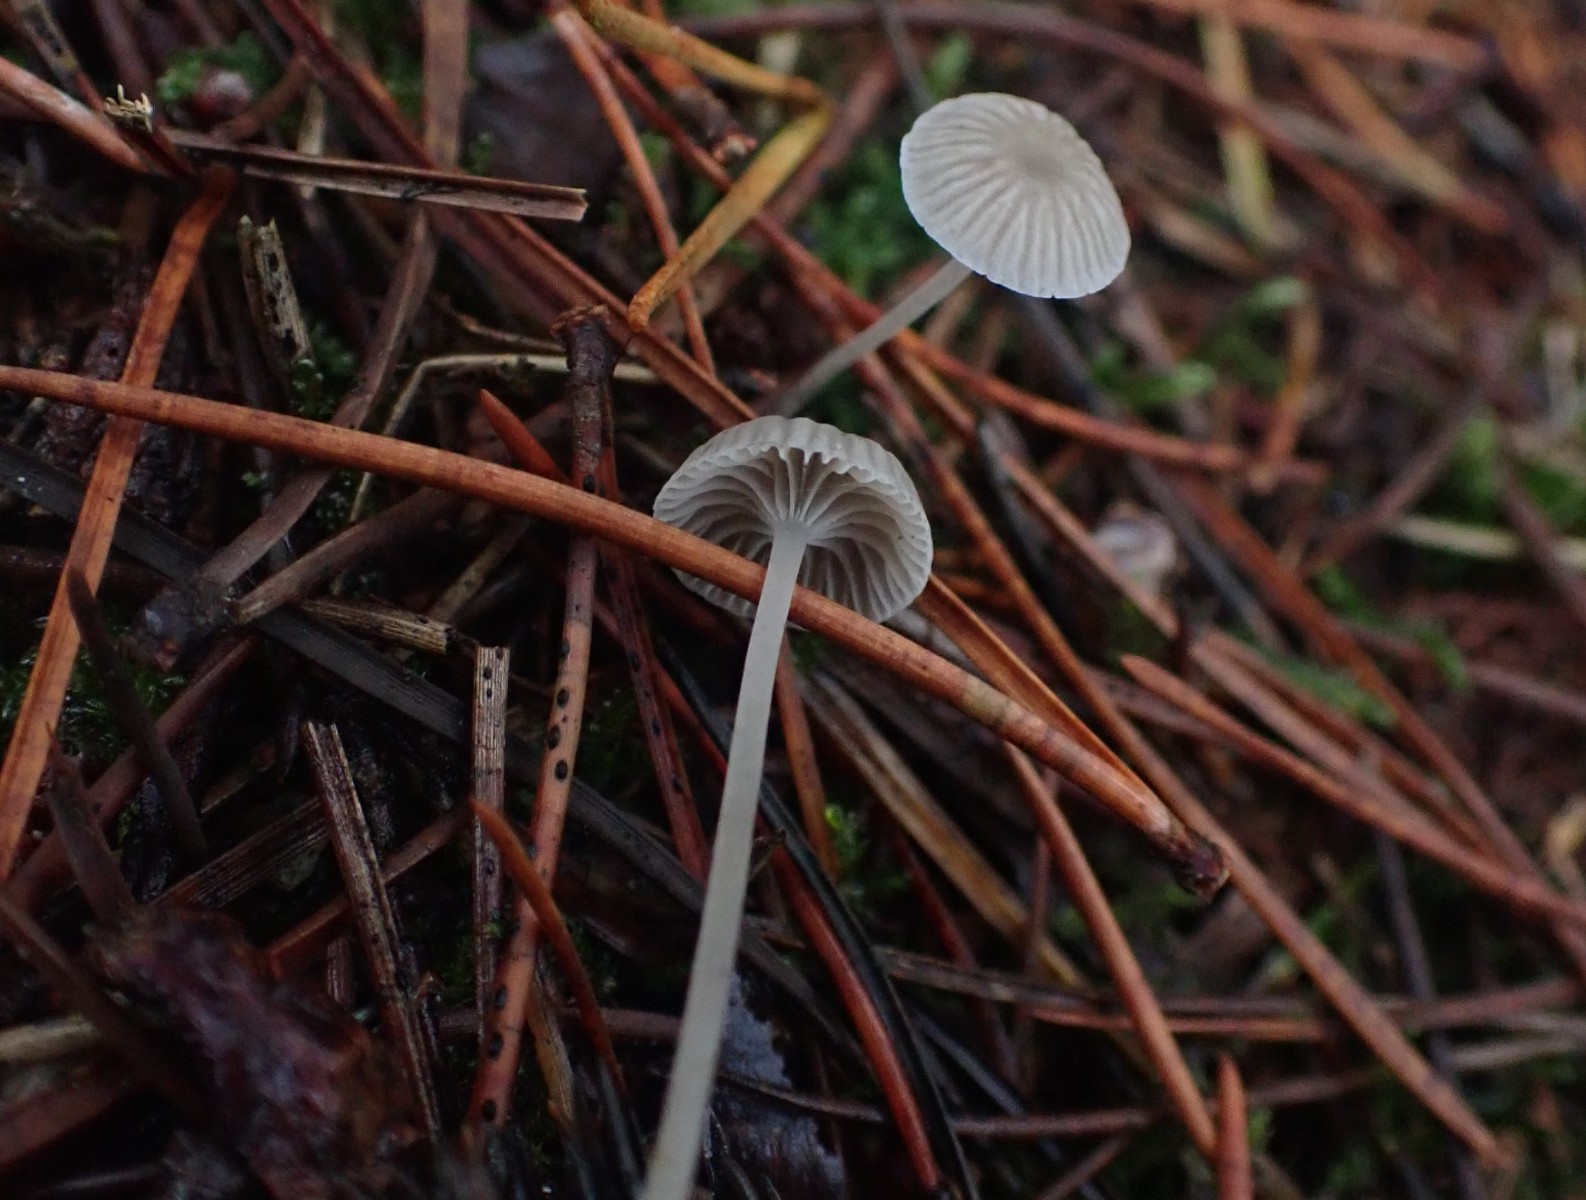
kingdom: Fungi
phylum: Basidiomycota
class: Agaricomycetes
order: Agaricales
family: Mycenaceae
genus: Mycena
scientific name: Mycena cinerella
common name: mel-huesvamp
